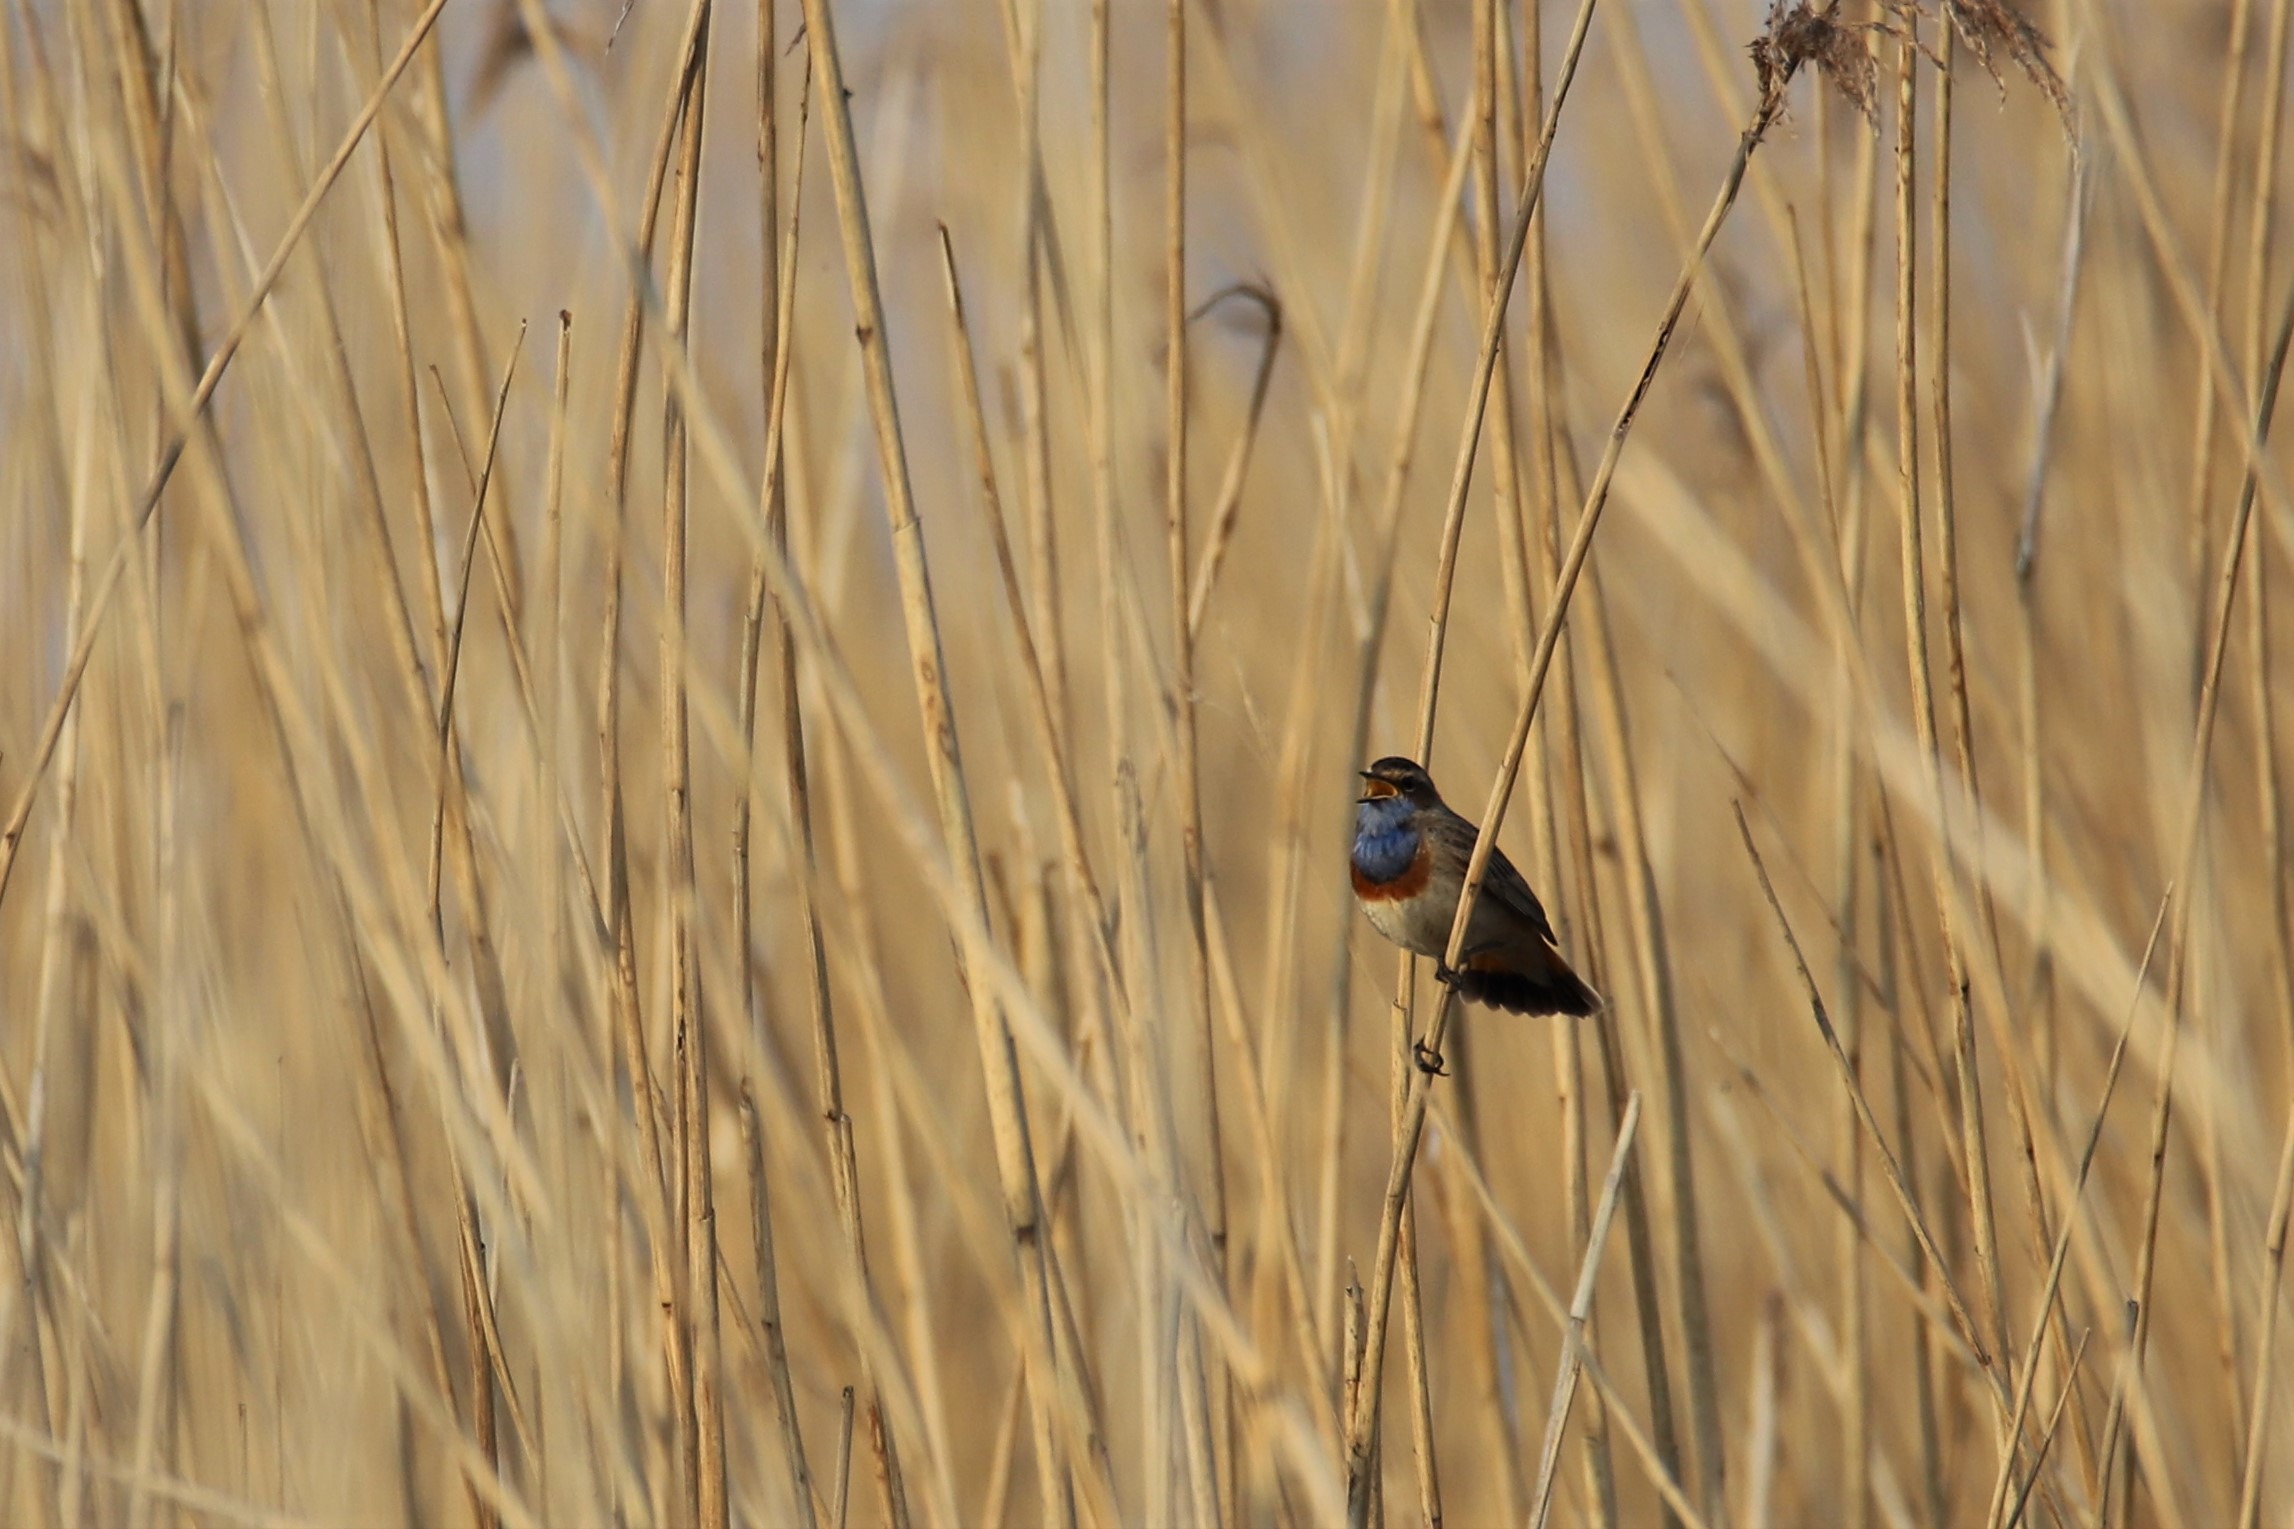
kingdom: Animalia
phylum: Chordata
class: Aves
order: Passeriformes
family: Muscicapidae
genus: Luscinia
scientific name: Luscinia svecica
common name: Blåhals
